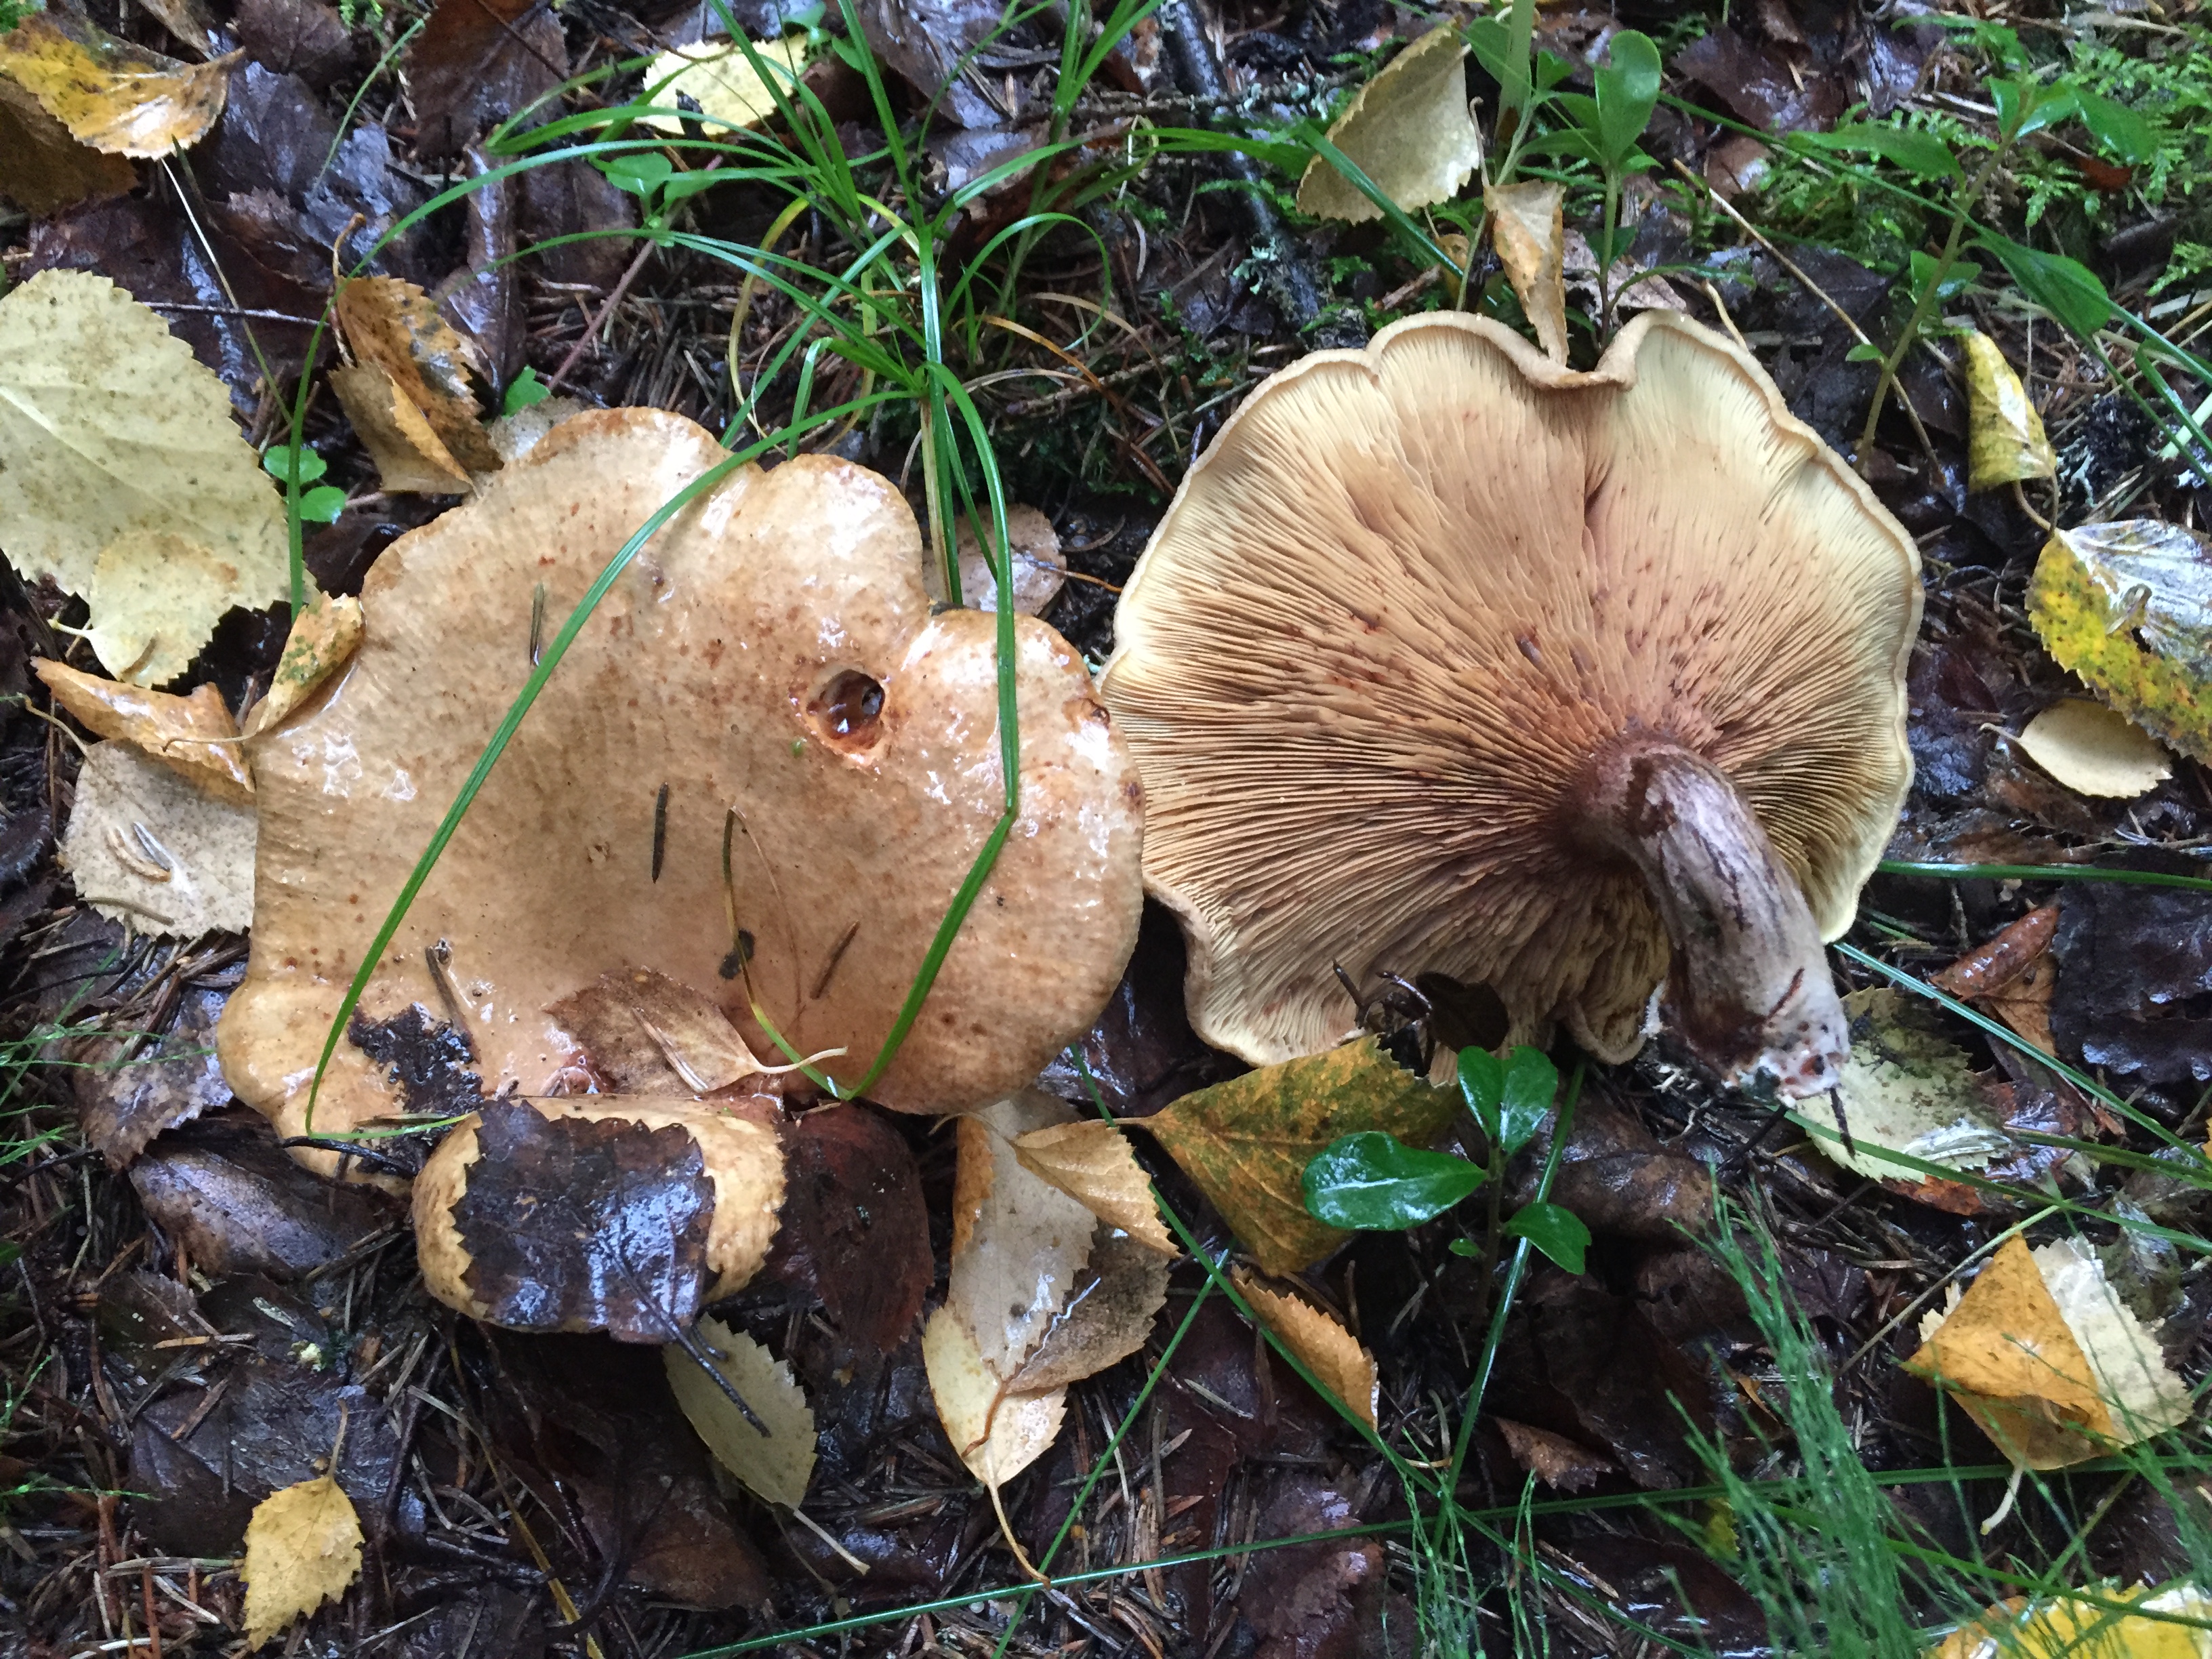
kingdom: Fungi
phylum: Basidiomycota
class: Agaricomycetes
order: Boletales
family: Paxillaceae
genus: Paxillus
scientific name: Paxillus involutus
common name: Brown roll rim
